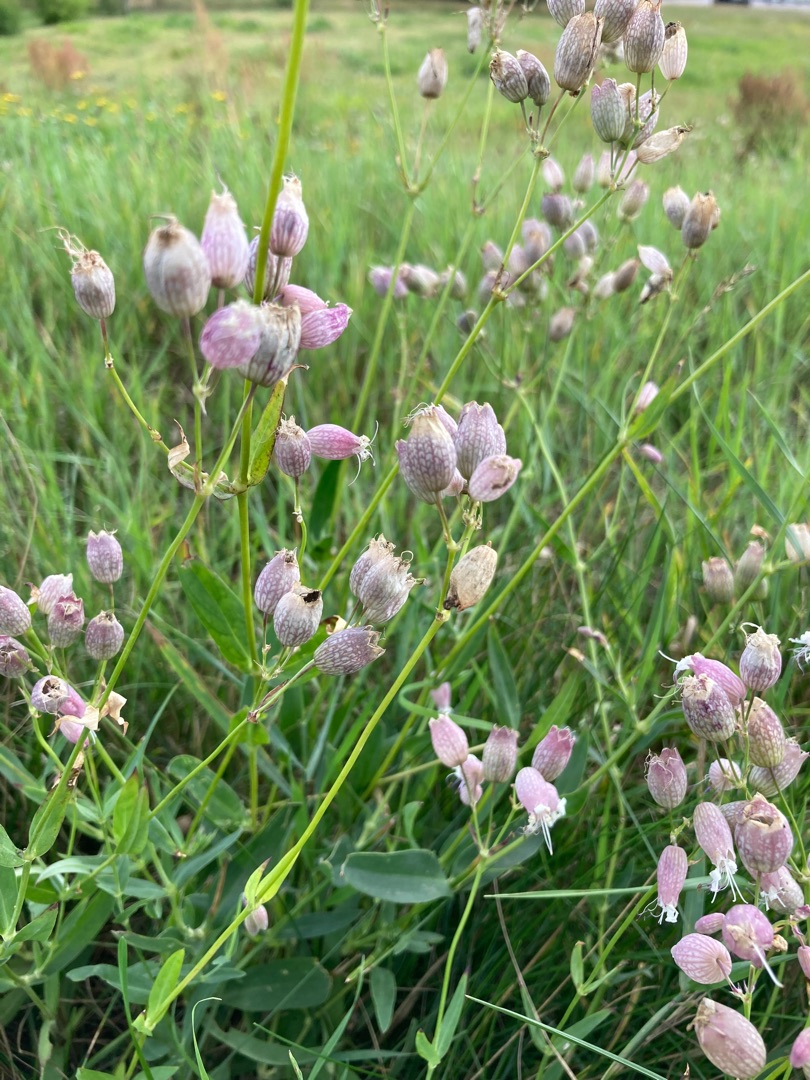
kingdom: Plantae
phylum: Tracheophyta
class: Magnoliopsida
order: Caryophyllales
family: Caryophyllaceae
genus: Silene
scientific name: Silene vulgaris
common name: Blæresmælde
